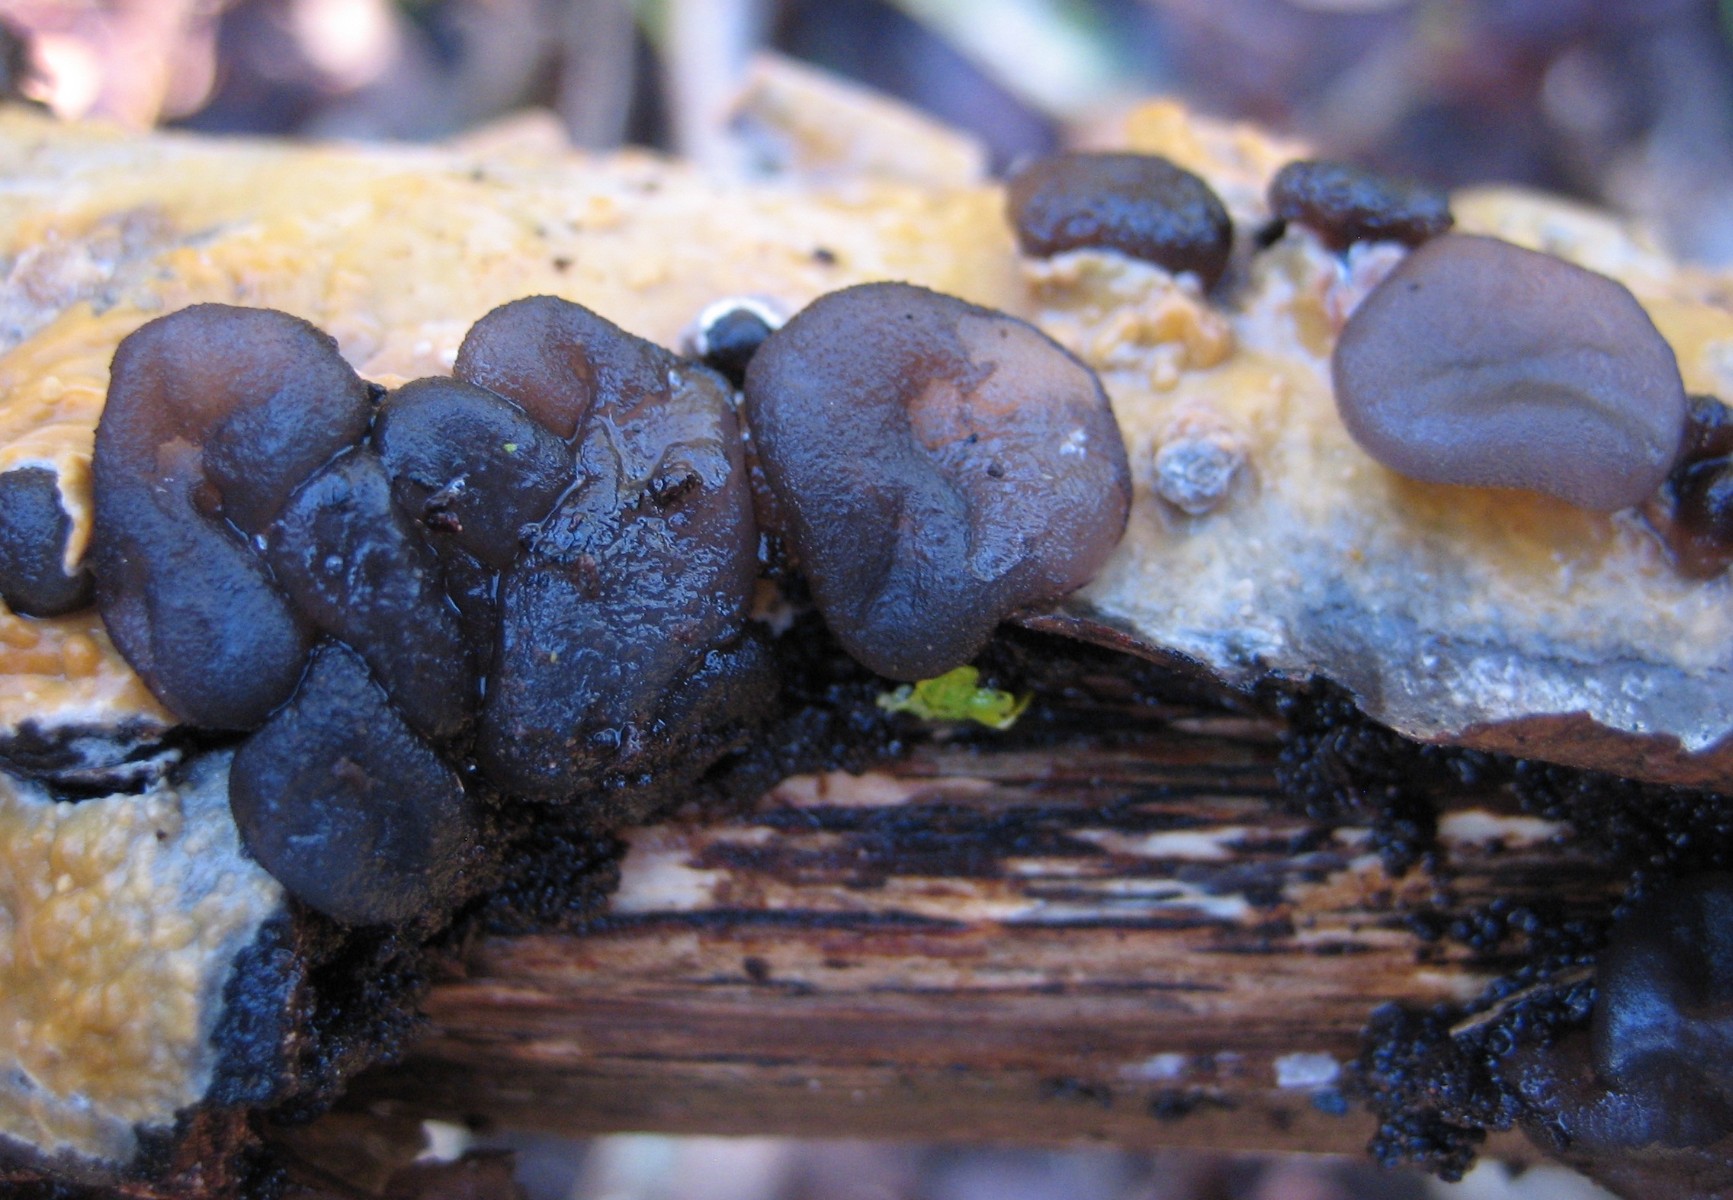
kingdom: Fungi
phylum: Basidiomycota
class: Agaricomycetes
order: Auriculariales
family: Auriculariaceae
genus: Exidia
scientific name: Exidia glandulosa
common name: ege-bævretop
